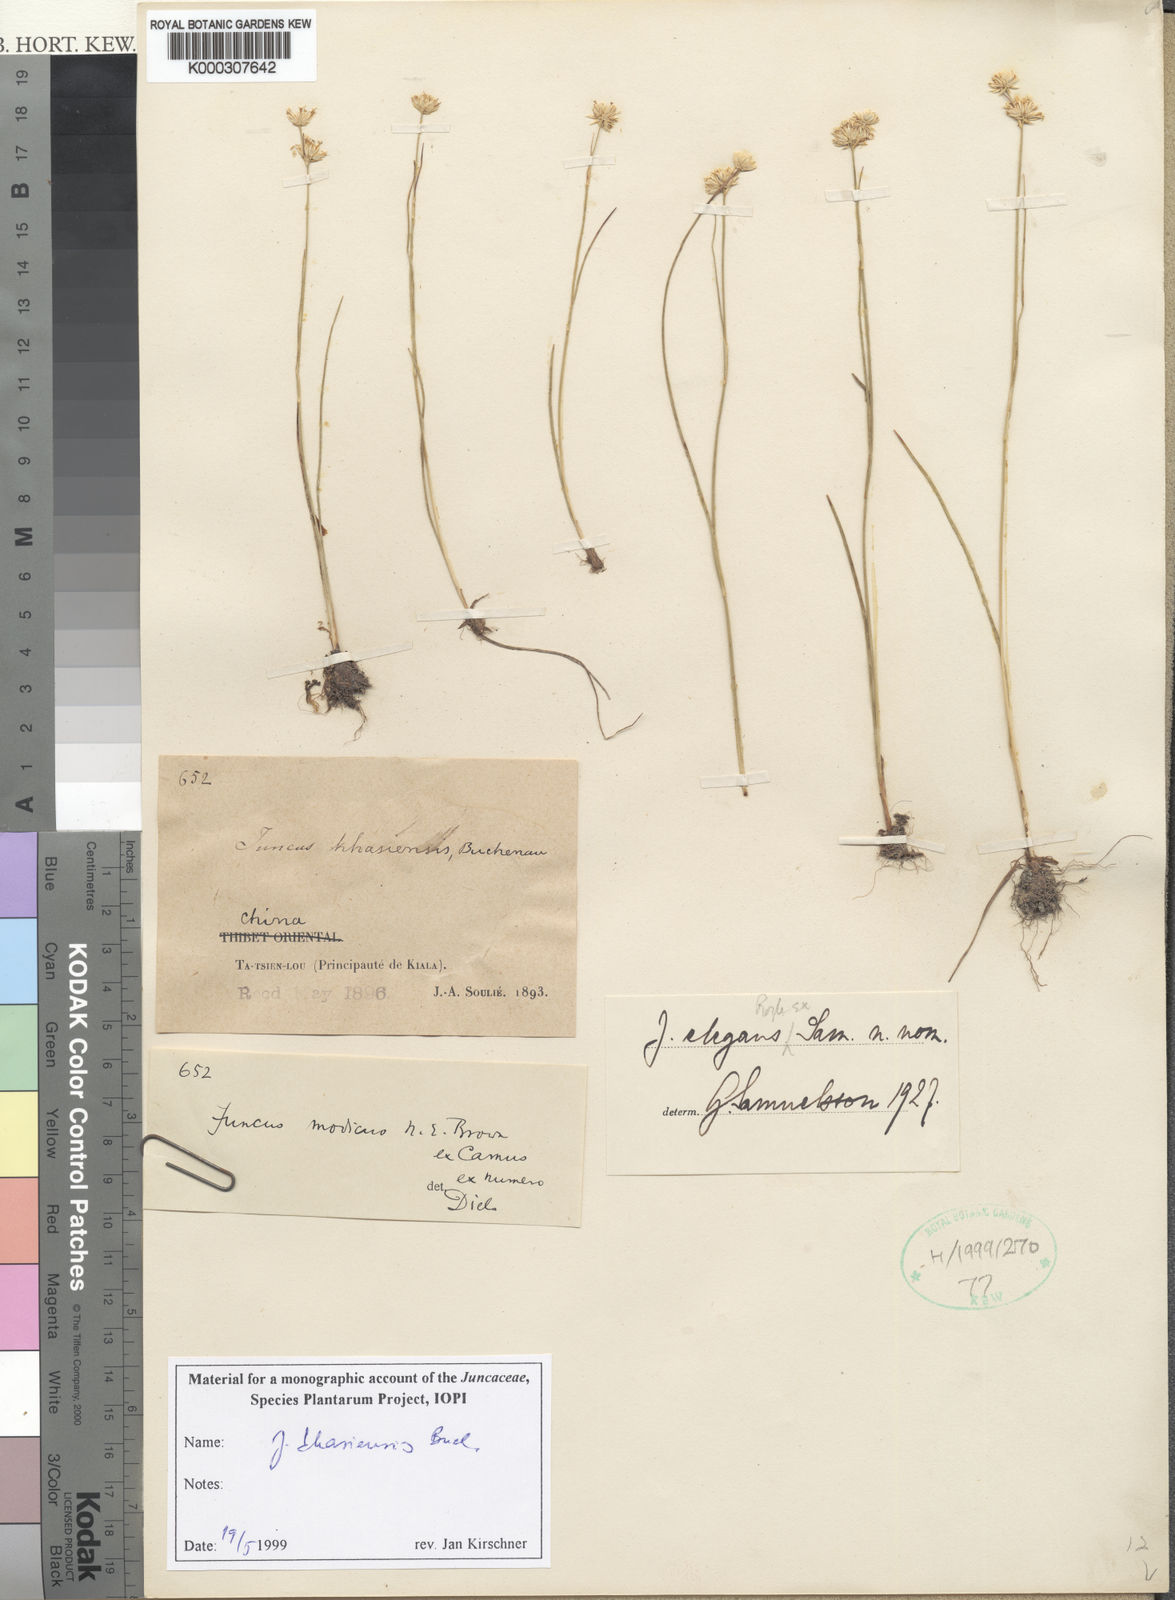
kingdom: Plantae
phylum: Tracheophyta
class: Liliopsida
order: Poales
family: Juncaceae
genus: Juncus
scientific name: Juncus khasiensis
